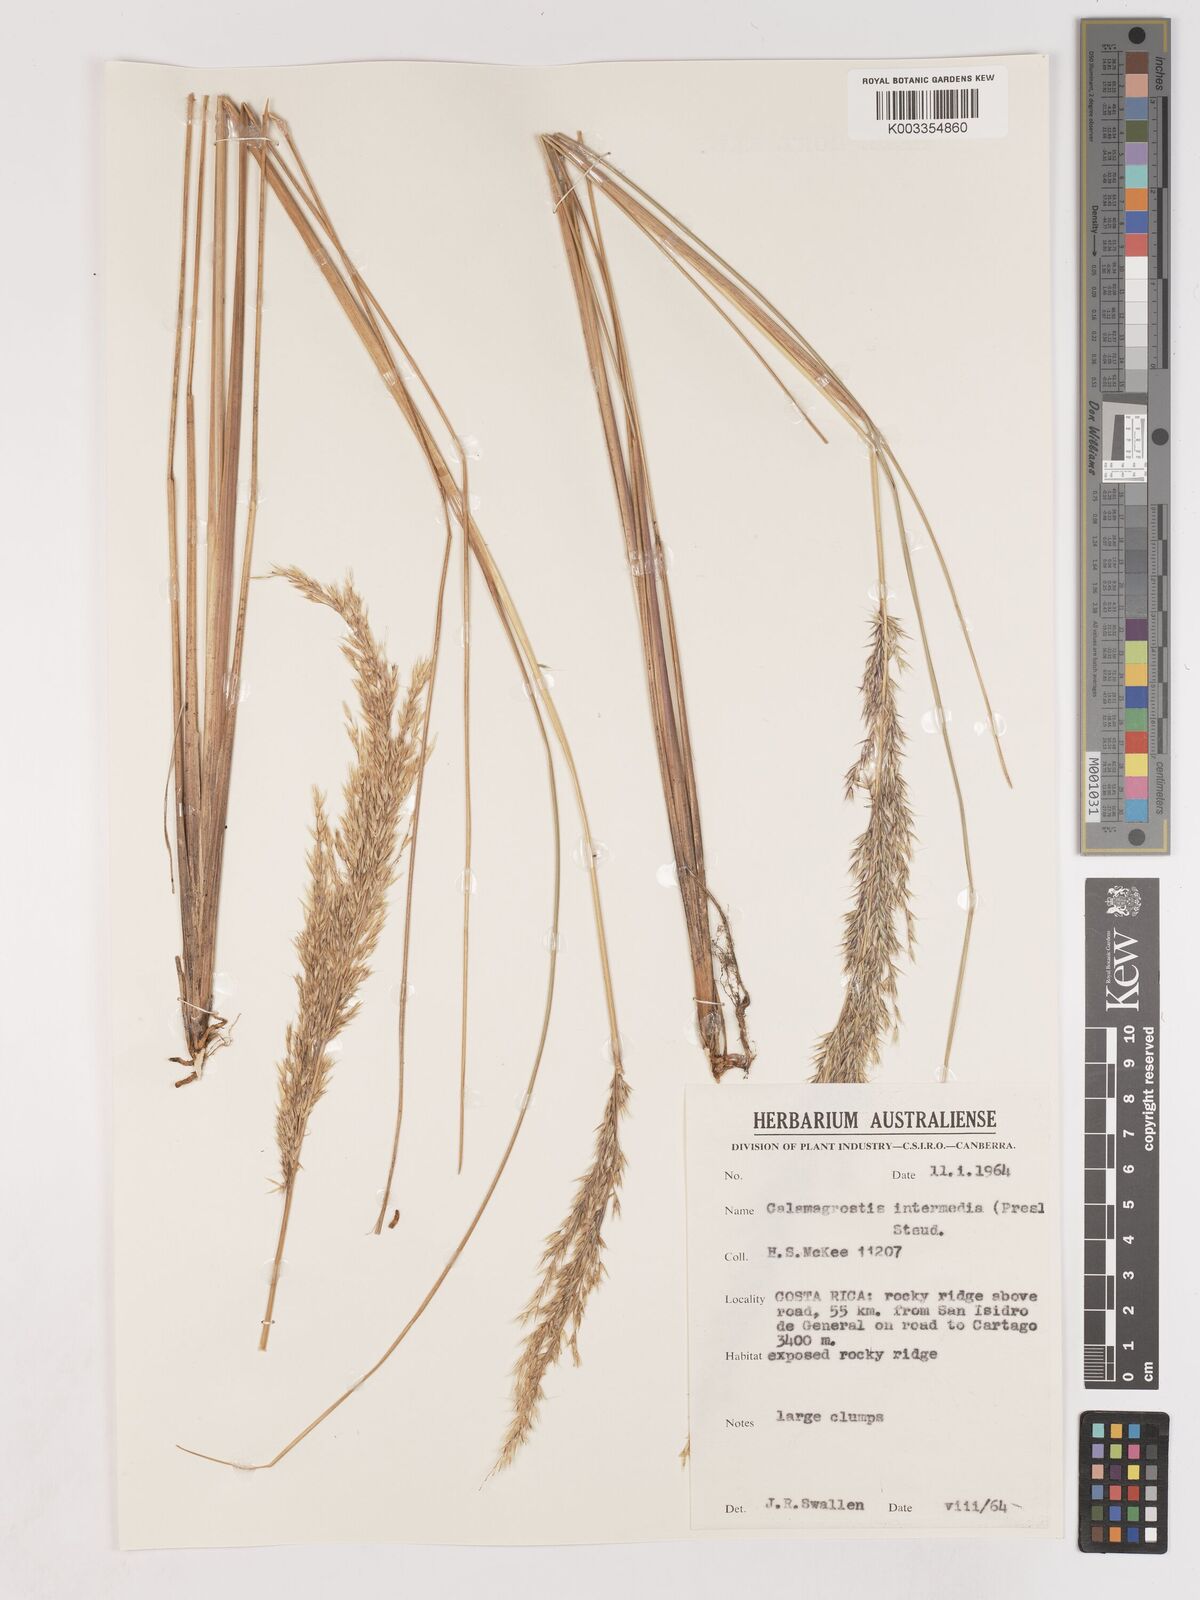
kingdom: Plantae
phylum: Tracheophyta
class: Liliopsida
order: Poales
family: Poaceae
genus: Cinnagrostis
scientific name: Cinnagrostis intermedia
